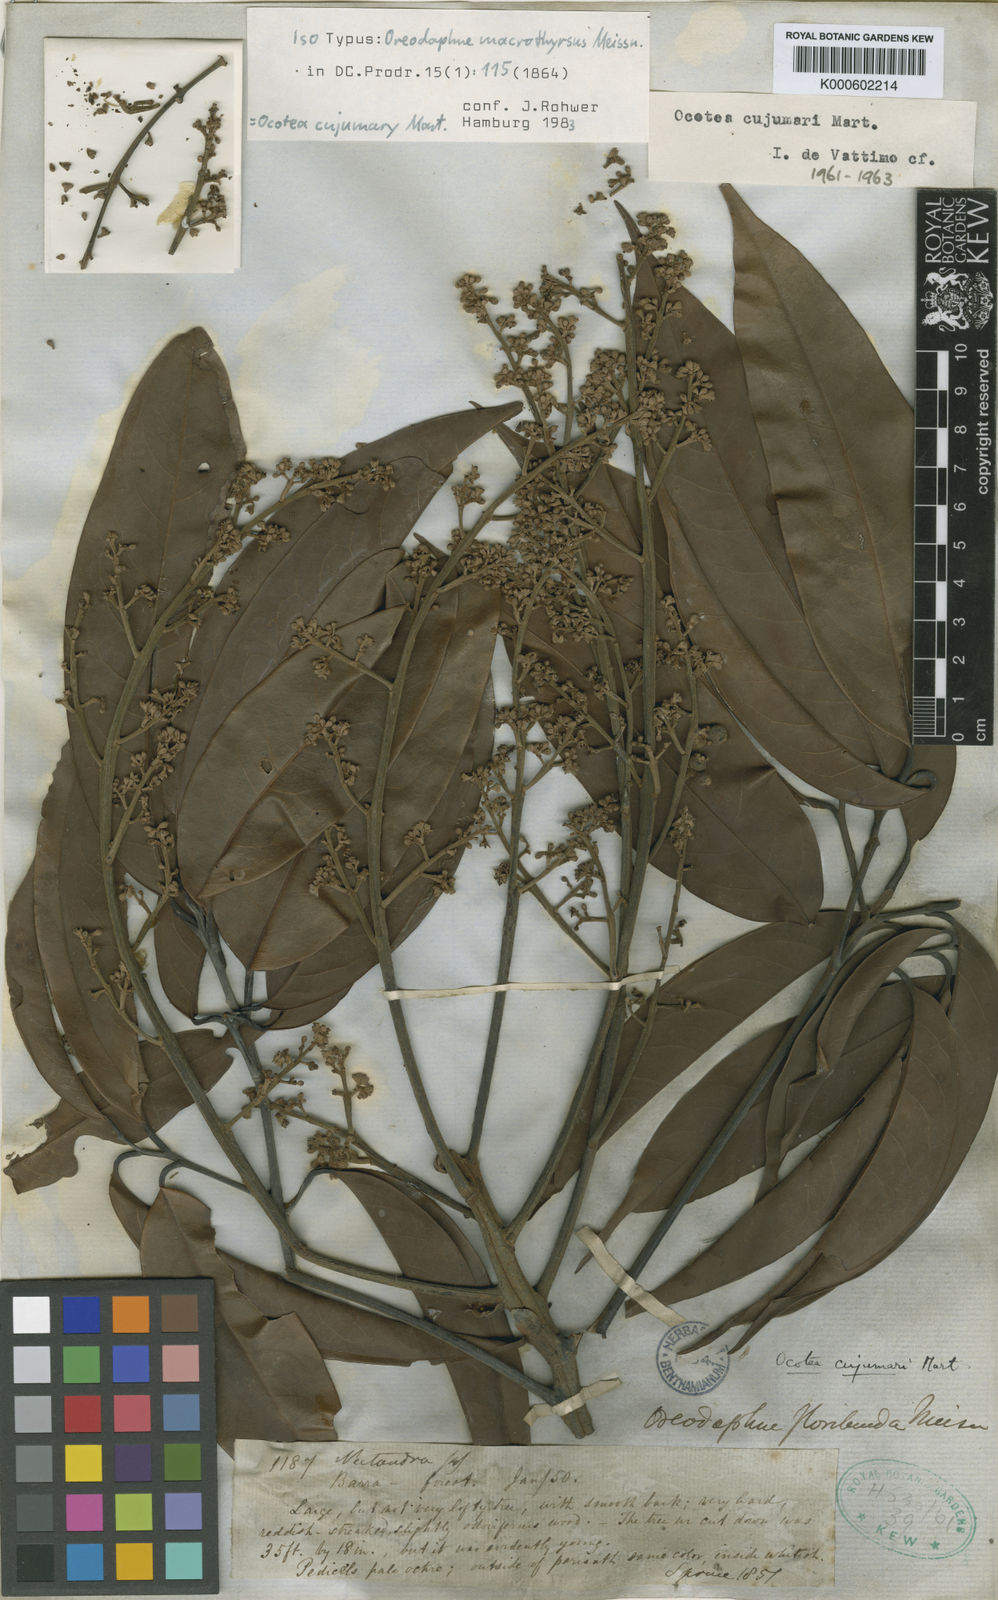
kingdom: Plantae
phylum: Tracheophyta
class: Magnoliopsida
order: Laurales
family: Lauraceae
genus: Ocotea
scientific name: Ocotea cujumary
